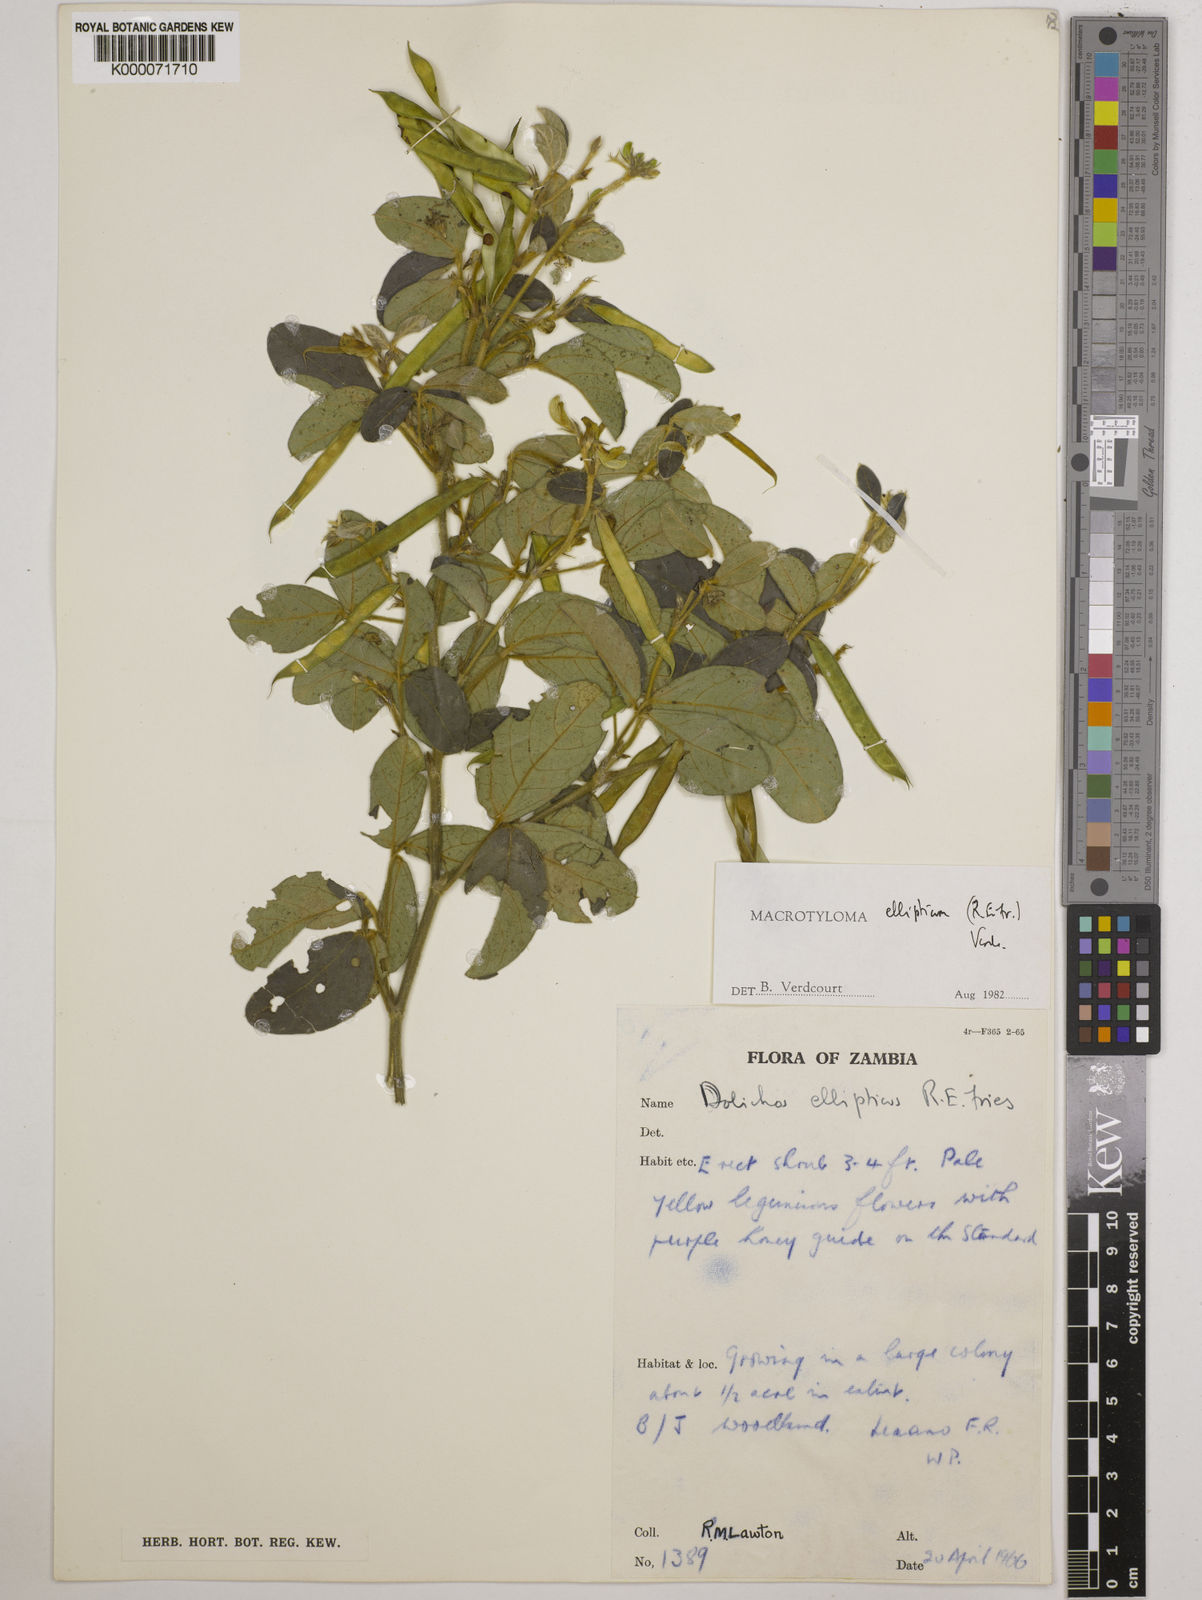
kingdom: Plantae
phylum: Tracheophyta
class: Magnoliopsida
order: Fabales
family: Fabaceae
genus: Macrotyloma
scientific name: Macrotyloma ellipticum
